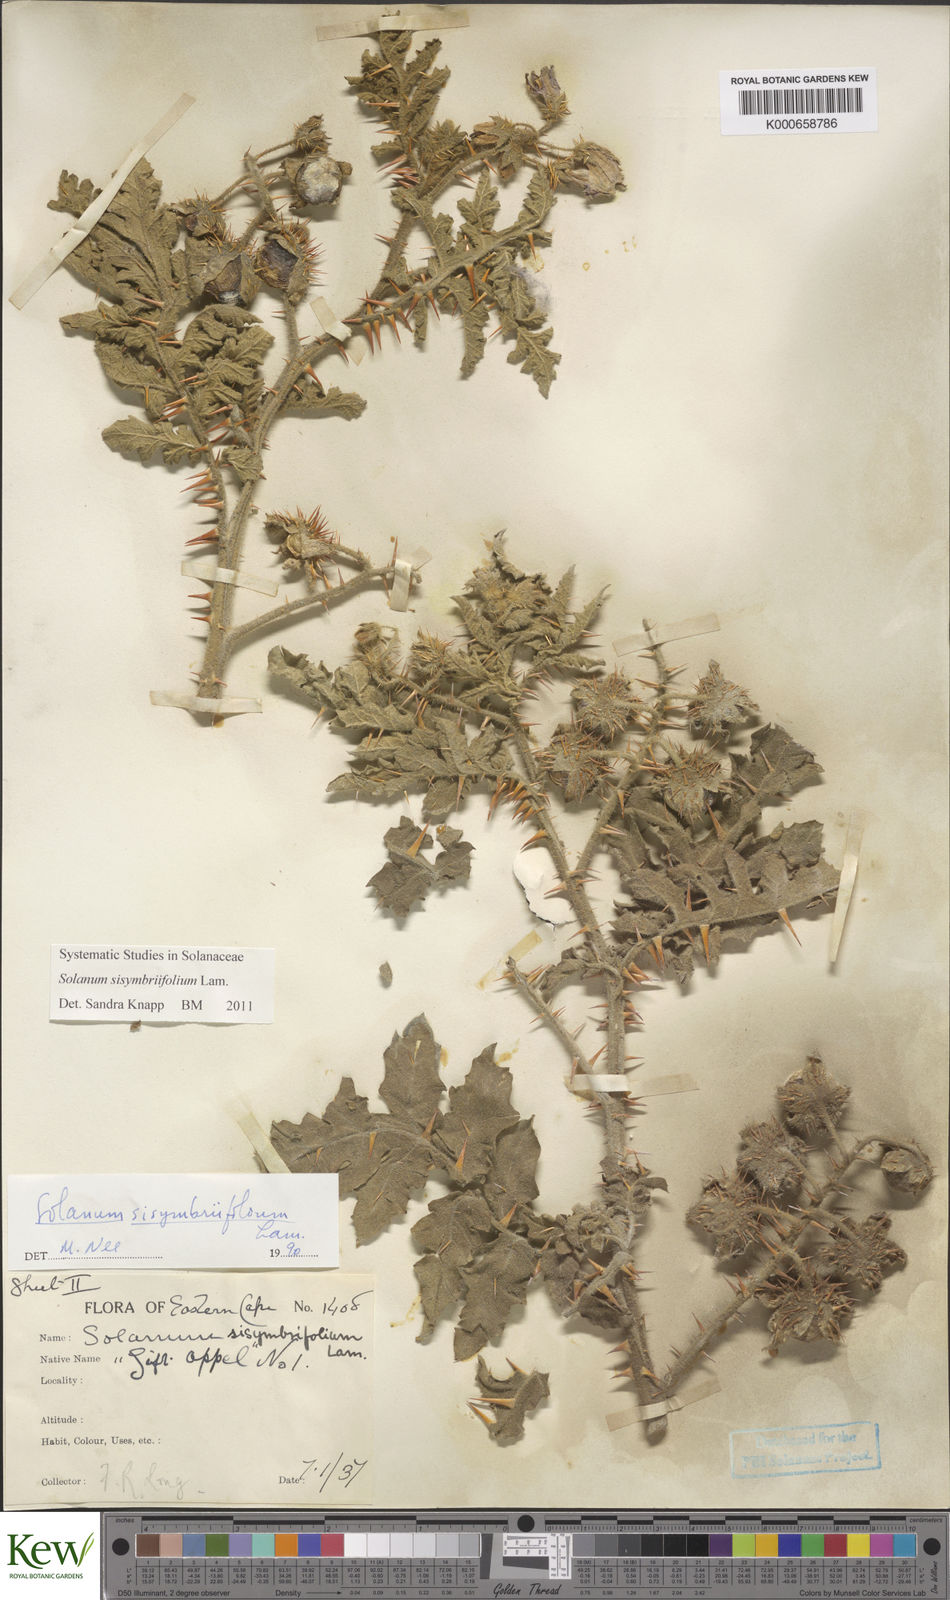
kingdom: Plantae
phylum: Tracheophyta
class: Magnoliopsida
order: Solanales
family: Solanaceae
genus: Solanum
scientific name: Solanum sisymbriifolium
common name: Red buffalo-bur
